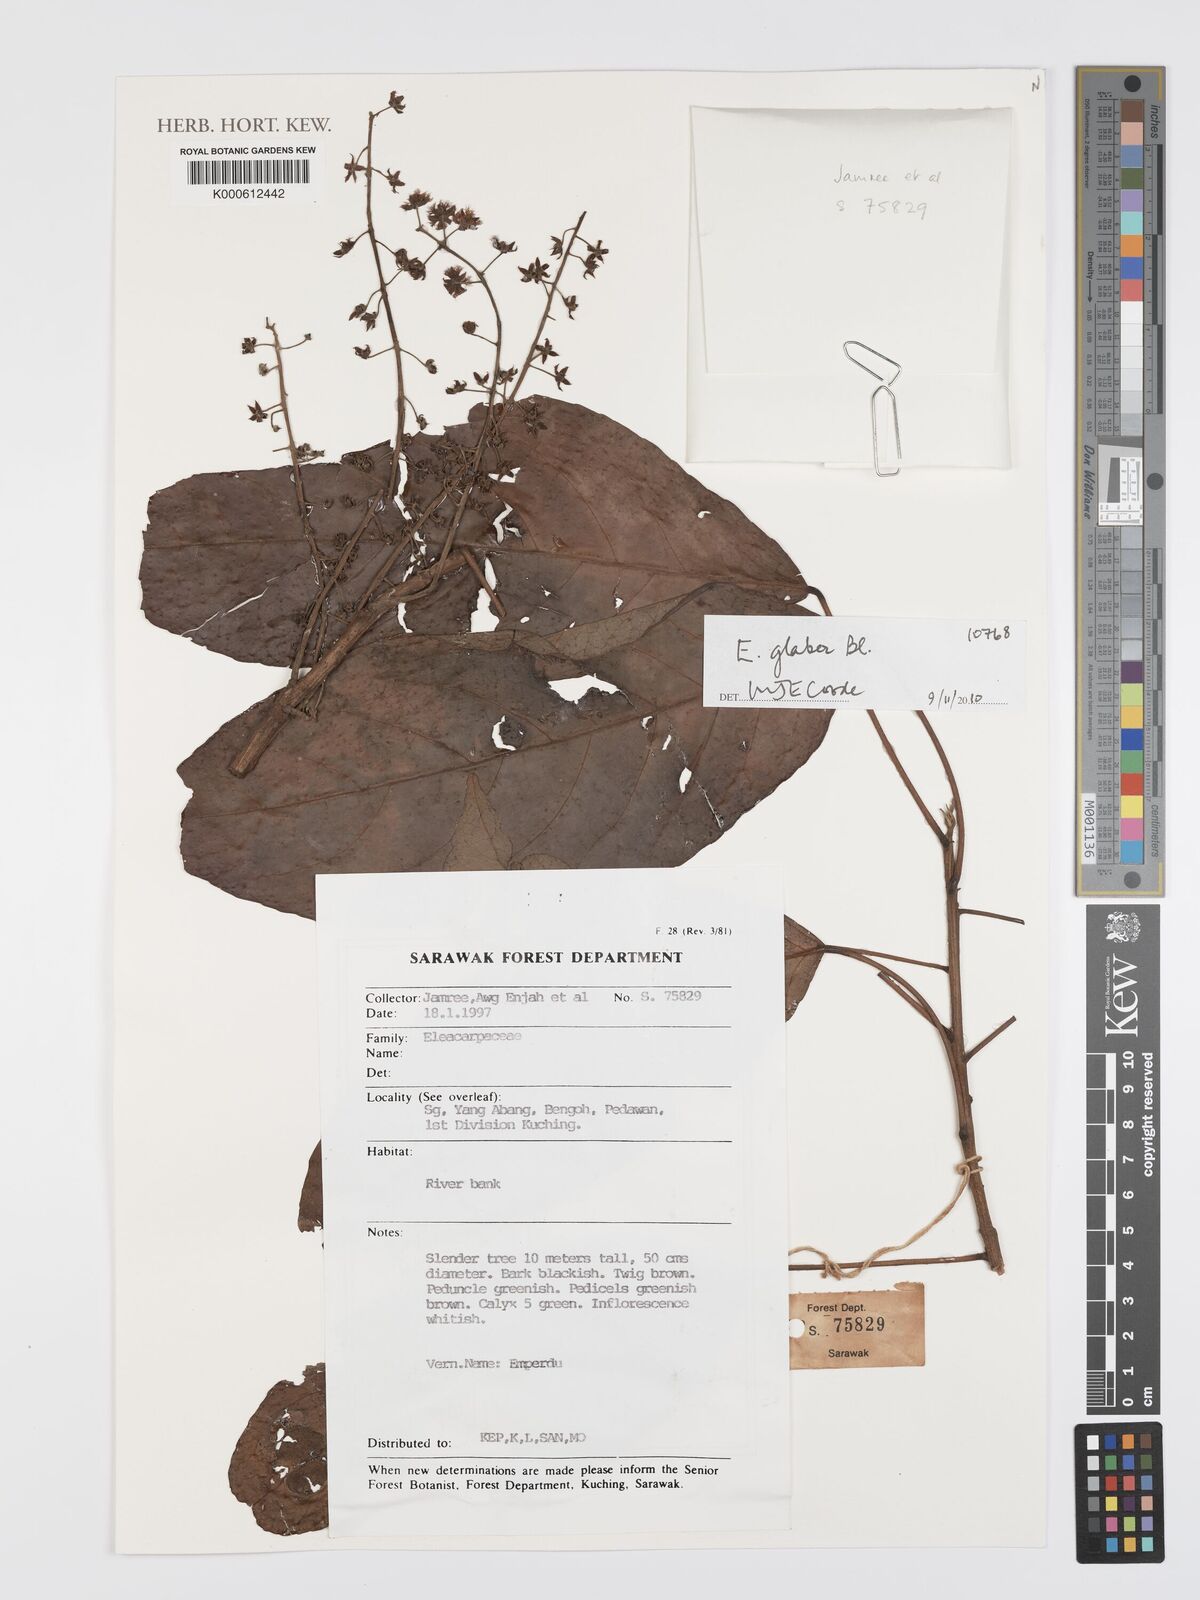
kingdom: Plantae
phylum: Tracheophyta
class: Magnoliopsida
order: Oxalidales
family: Elaeocarpaceae
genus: Elaeocarpus
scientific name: Elaeocarpus
